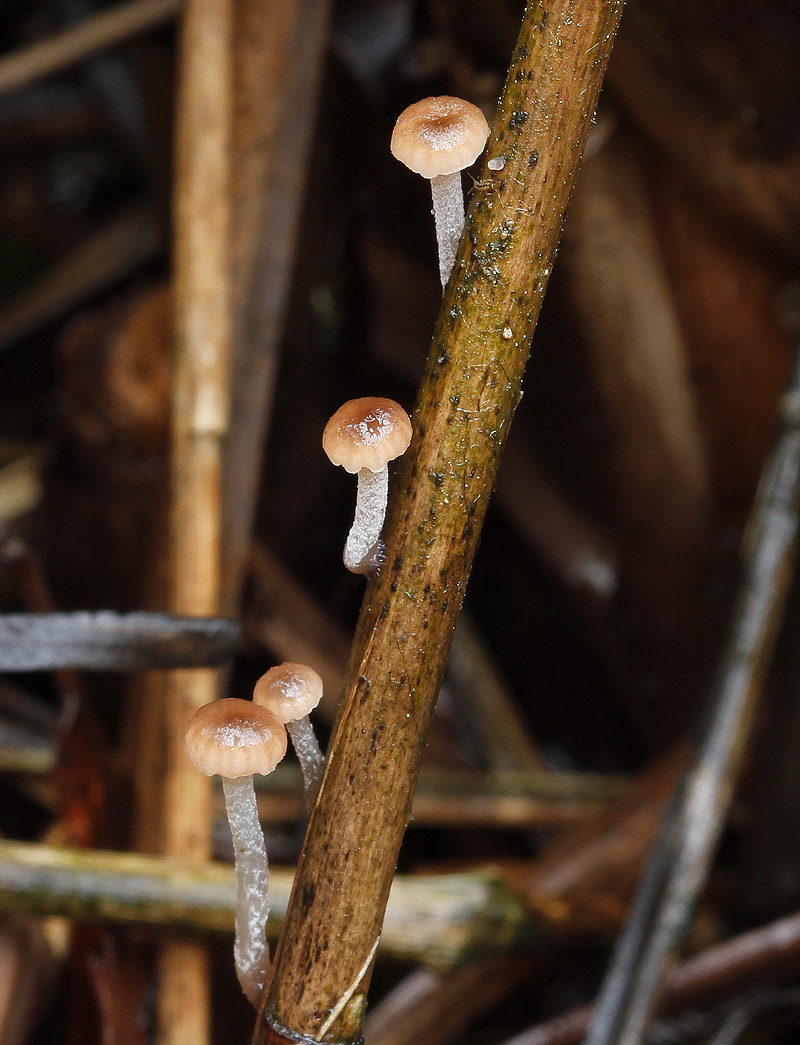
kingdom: Fungi
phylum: Basidiomycota
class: Agaricomycetes
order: Agaricales
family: Mycenaceae
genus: Mycena
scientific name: Mycena belliae
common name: tagrørs-huesvamp
